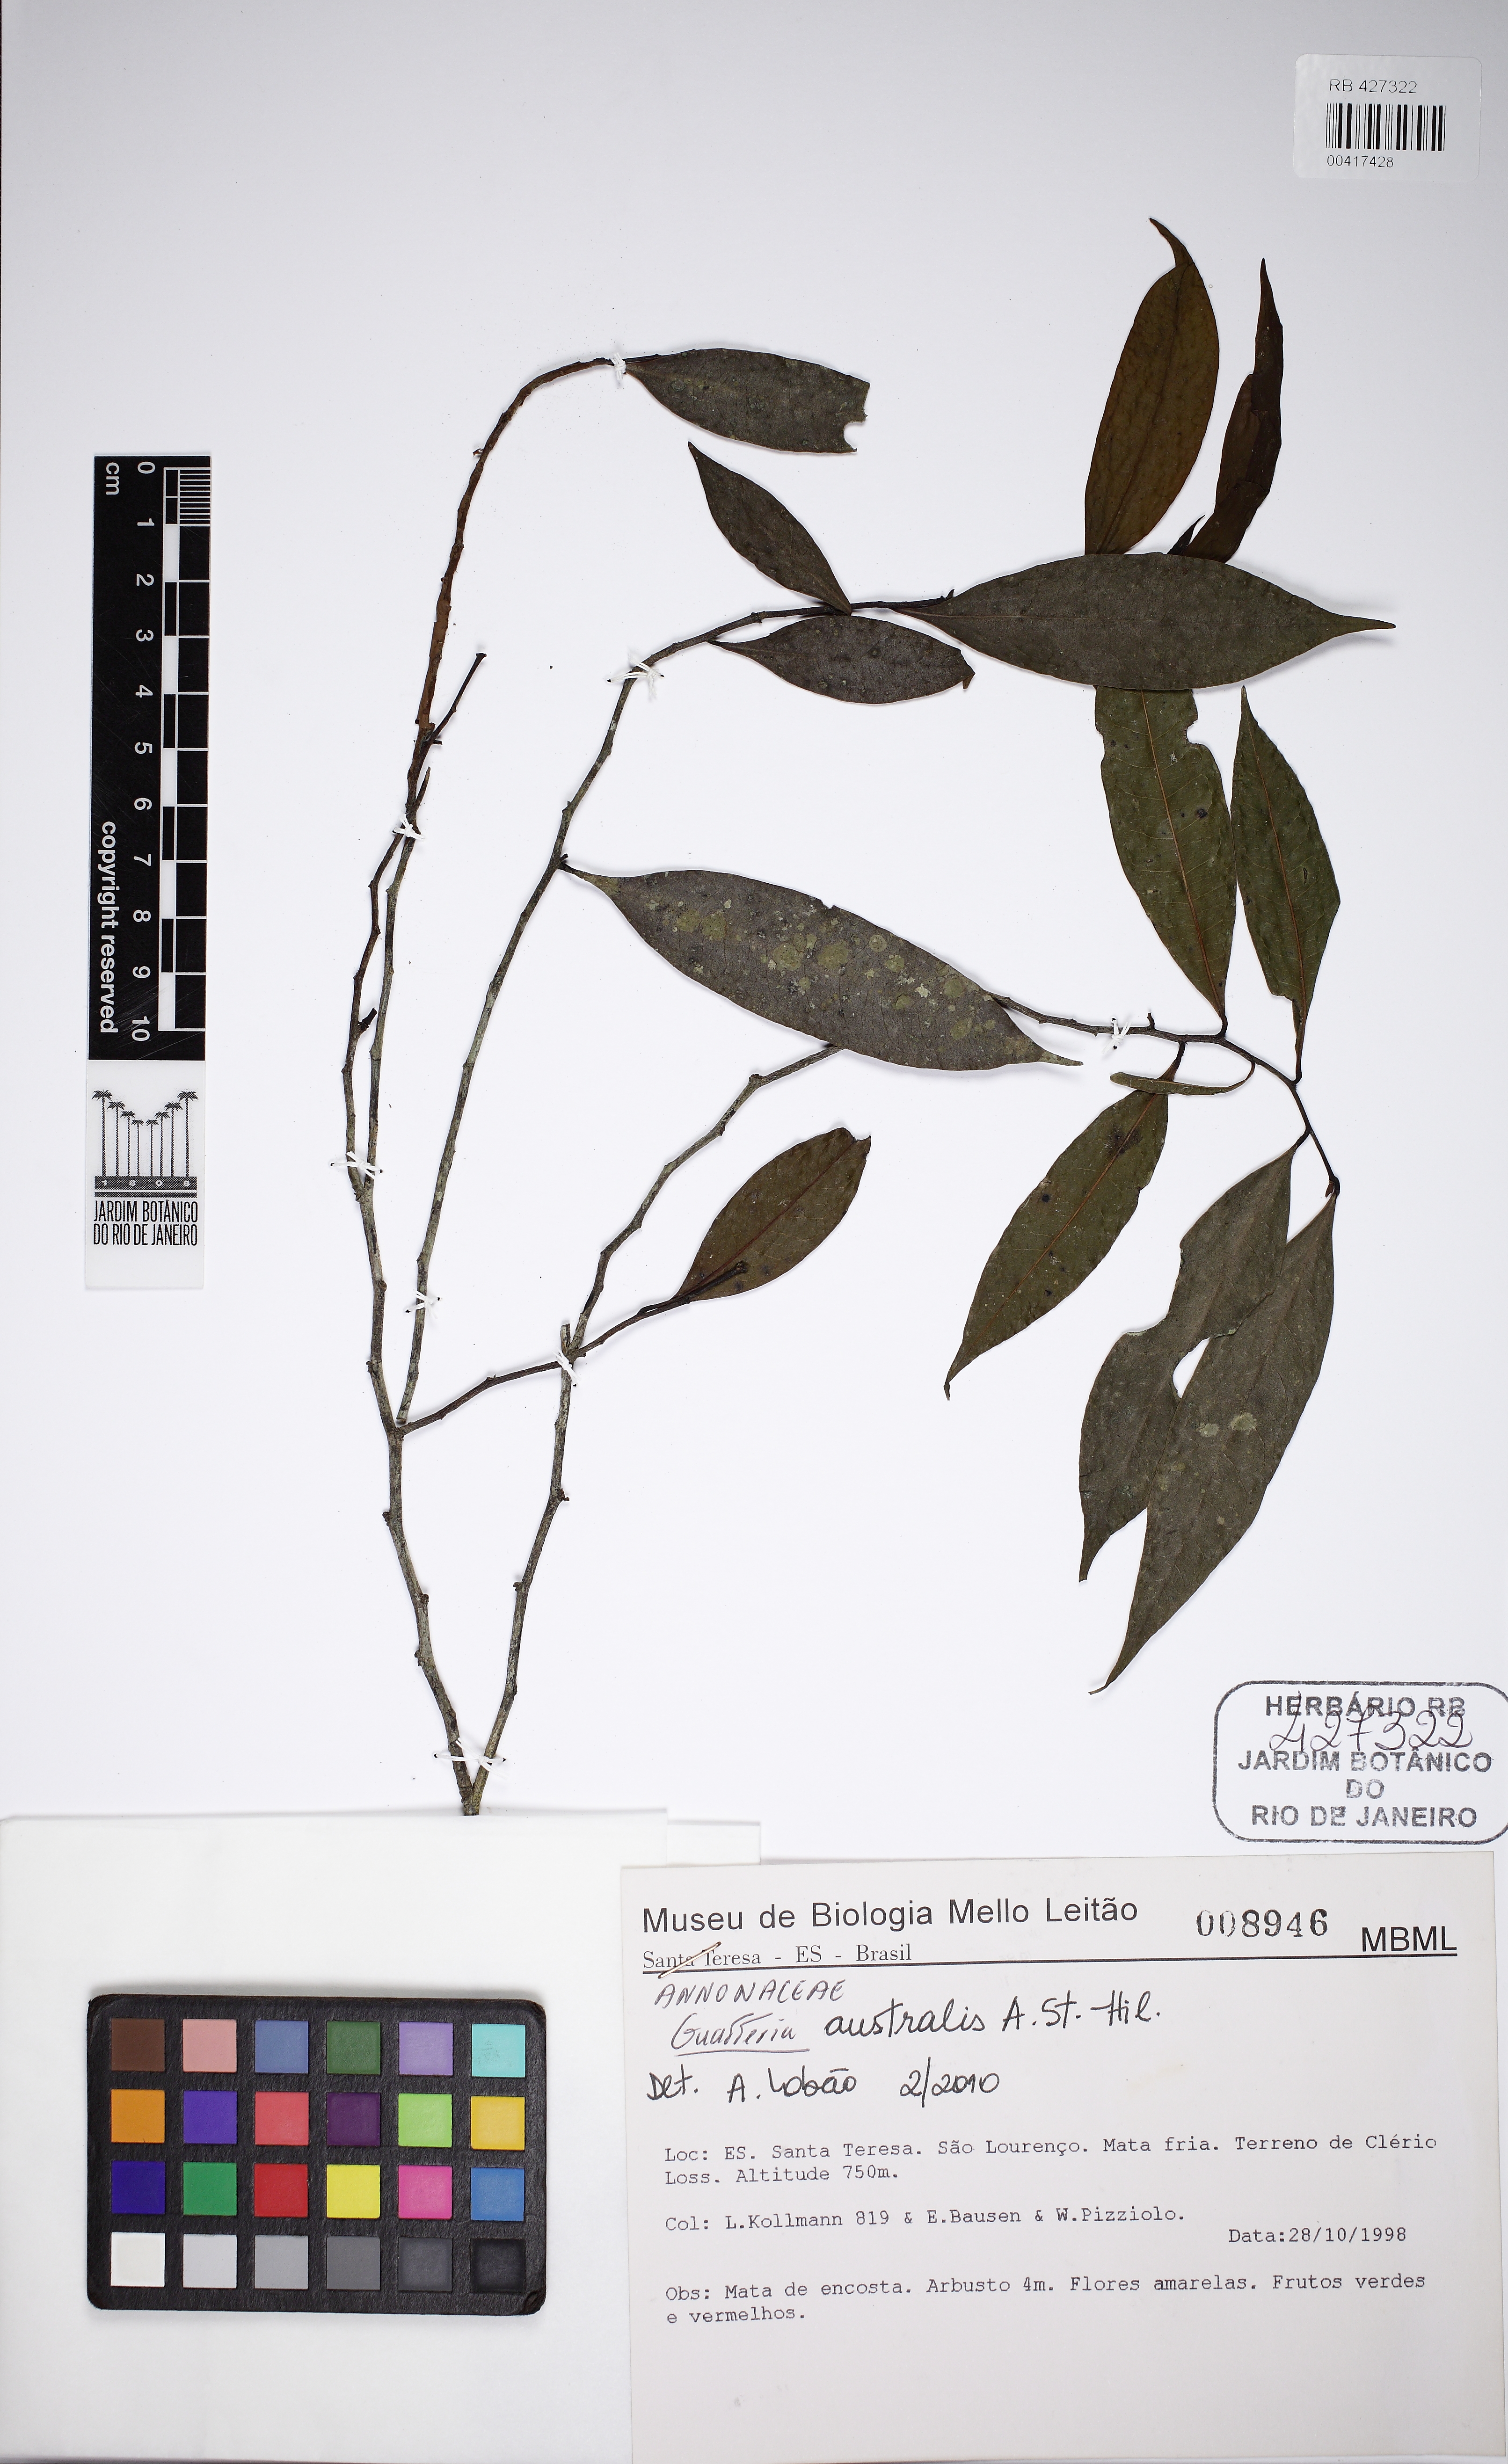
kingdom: Plantae
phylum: Tracheophyta
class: Magnoliopsida
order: Magnoliales
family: Annonaceae
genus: Guatteria
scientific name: Guatteria capixabae
